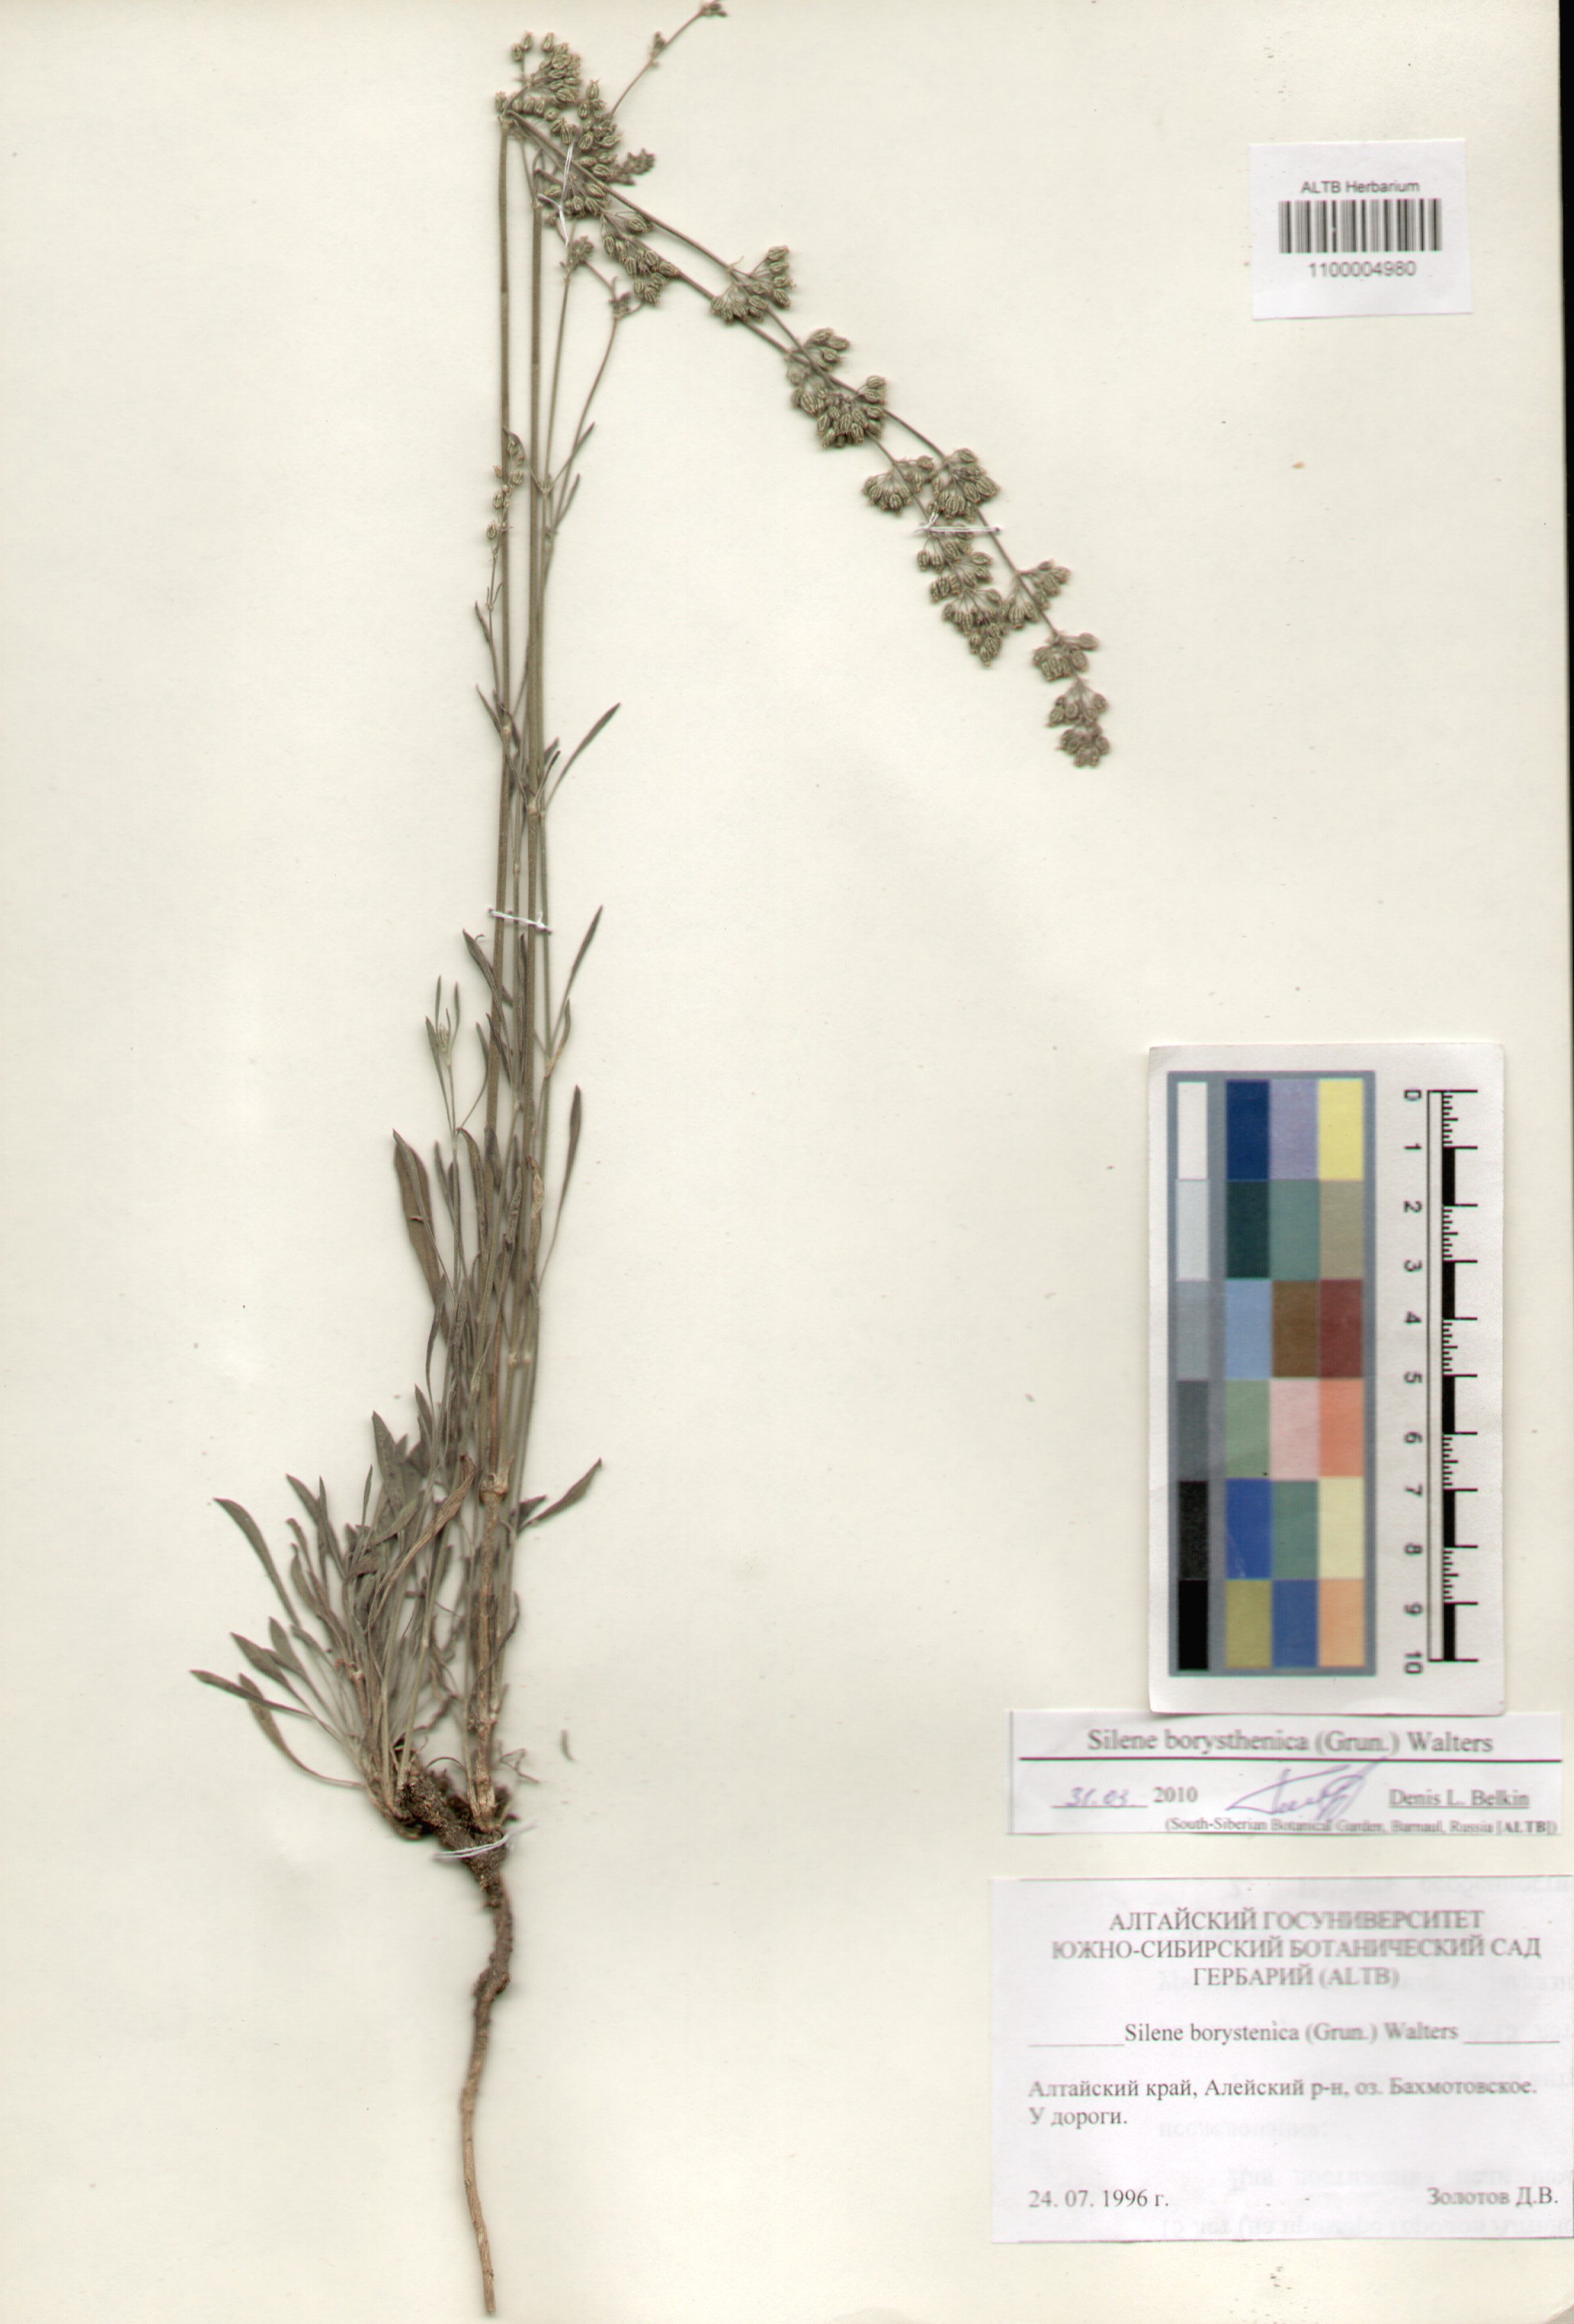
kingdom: Plantae
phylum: Tracheophyta
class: Magnoliopsida
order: Caryophyllales
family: Caryophyllaceae
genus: Silene
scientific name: Silene borysthenica
